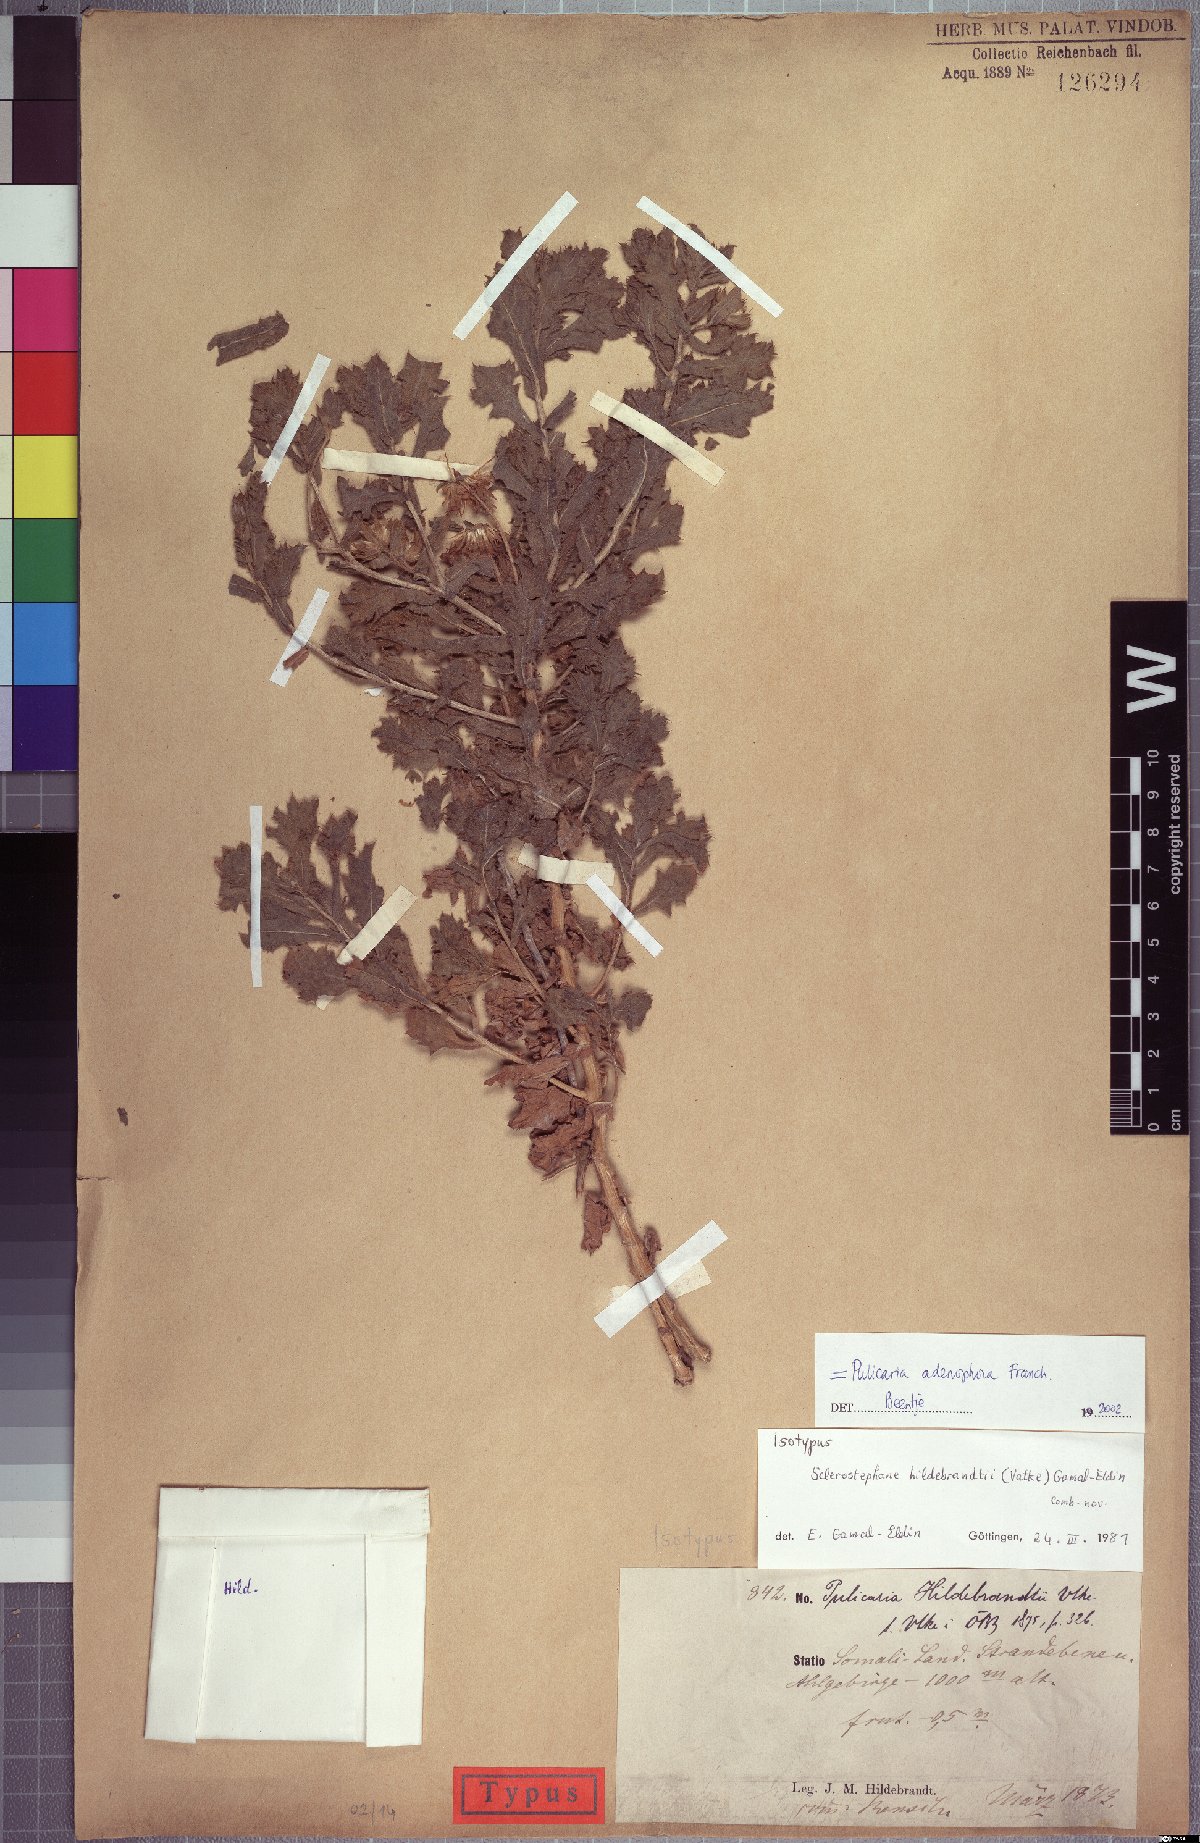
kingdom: Plantae
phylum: Tracheophyta
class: Magnoliopsida
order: Asterales
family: Asteraceae
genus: Pulicaria
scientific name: Pulicaria hildebrandtii
